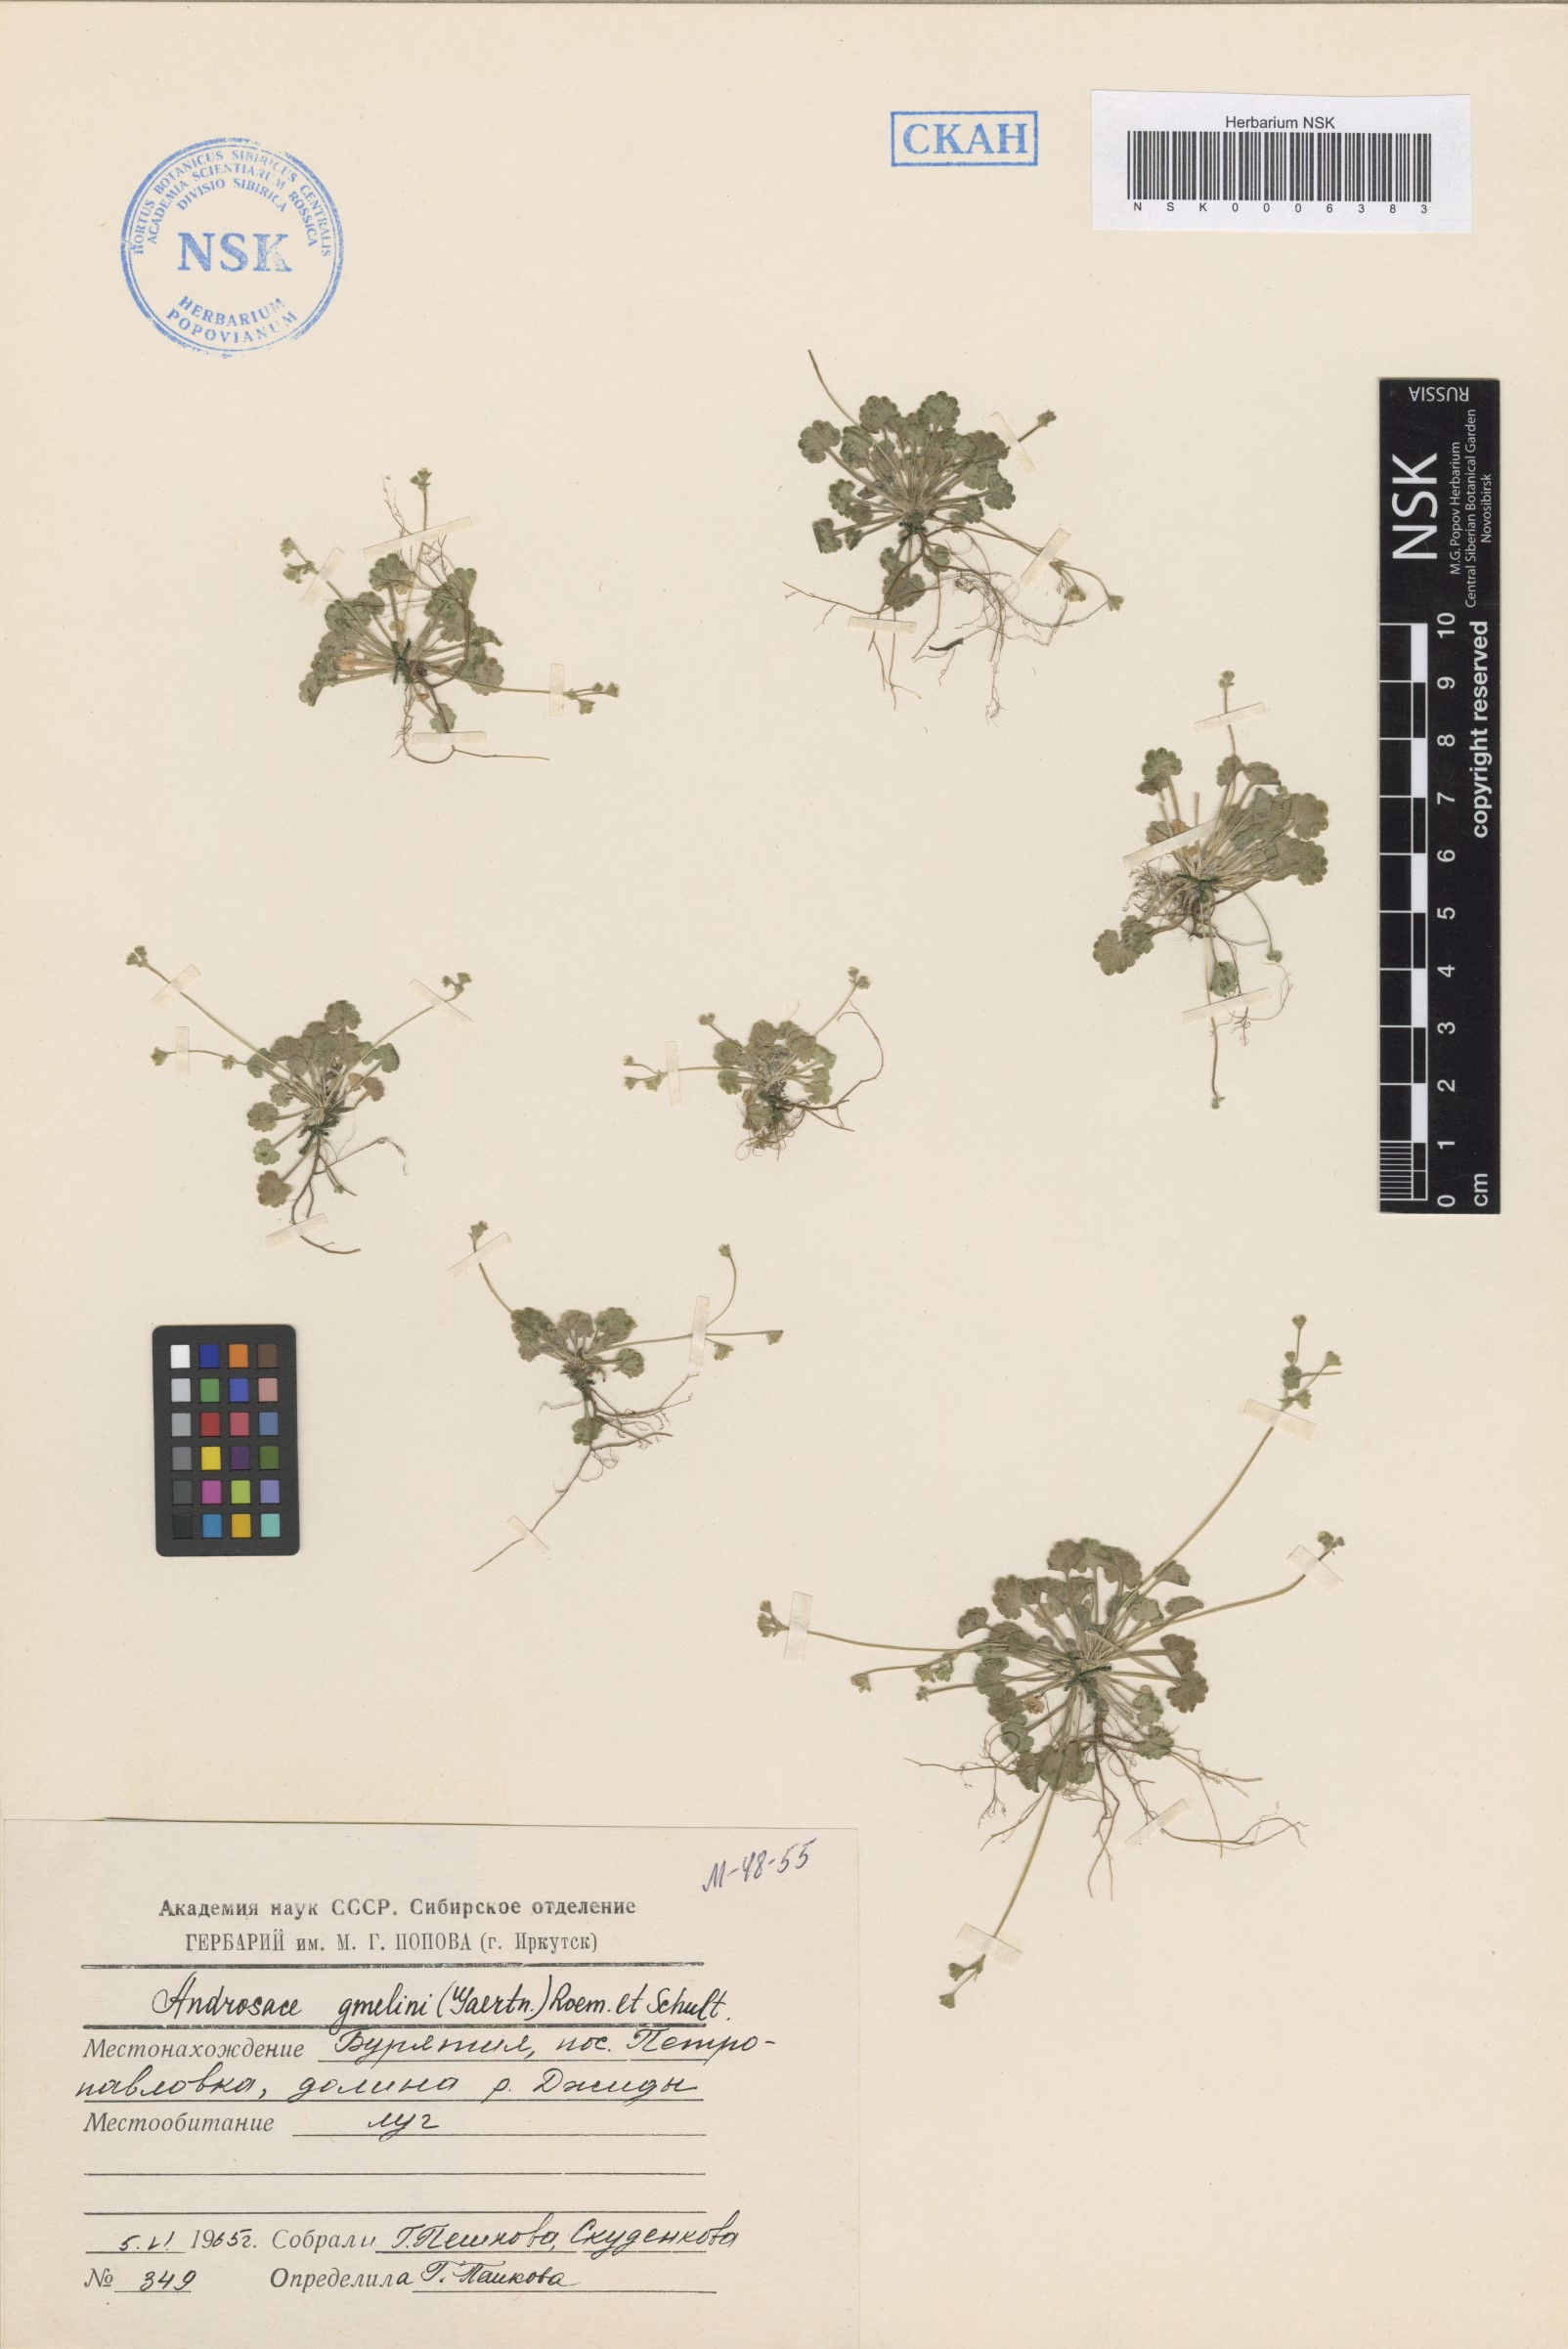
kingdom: Plantae
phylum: Tracheophyta
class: Magnoliopsida
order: Ericales
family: Primulaceae
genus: Androsace
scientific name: Androsace gmelinii
